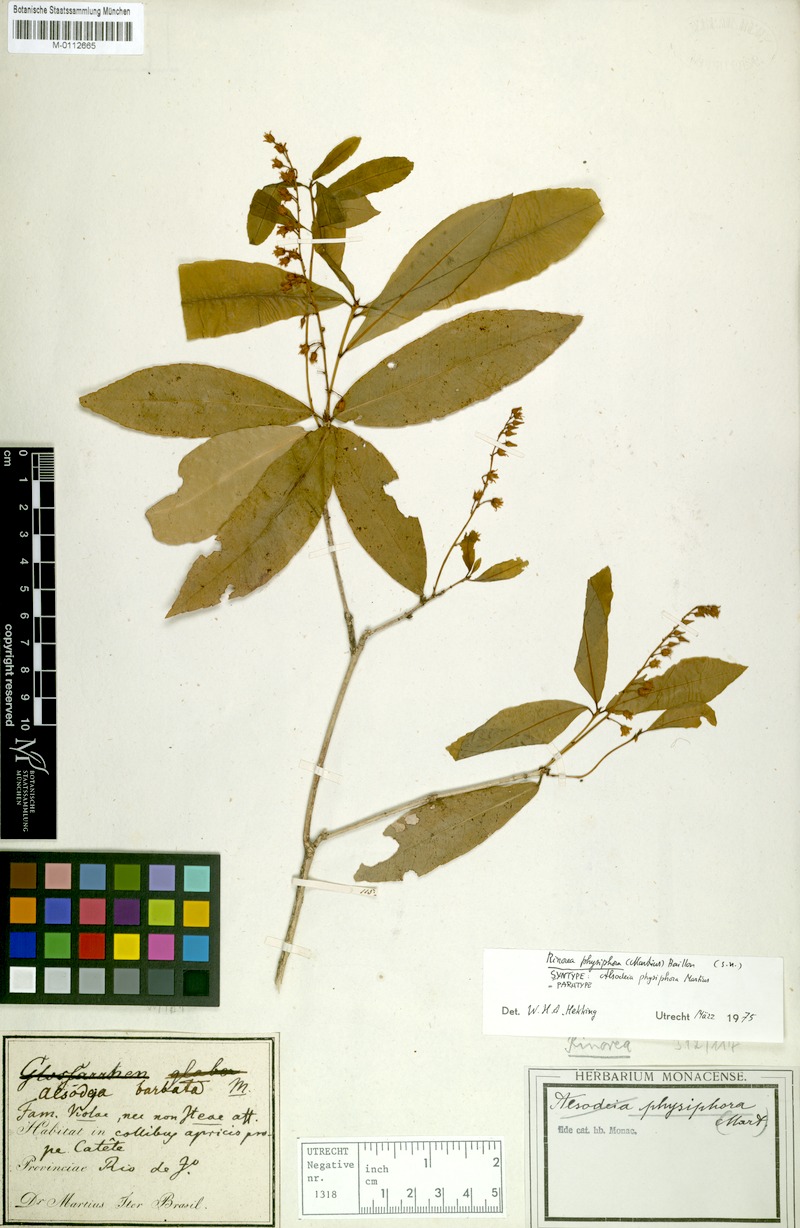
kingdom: Plantae
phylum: Tracheophyta
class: Magnoliopsida
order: Malpighiales
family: Violaceae
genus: Rinorea
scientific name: Rinorea laevigata
